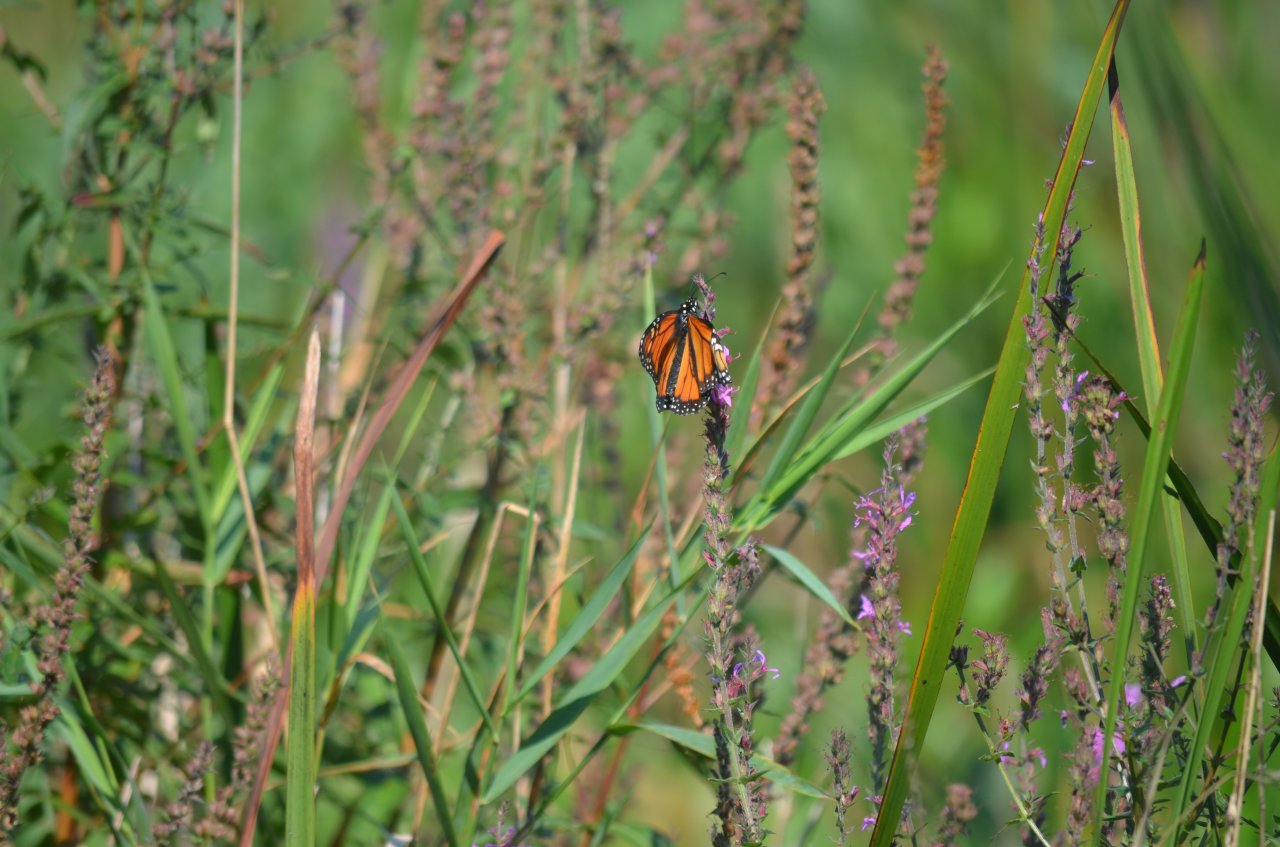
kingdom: Animalia
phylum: Arthropoda
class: Insecta
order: Lepidoptera
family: Nymphalidae
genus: Danaus
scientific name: Danaus plexippus
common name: Monarch
